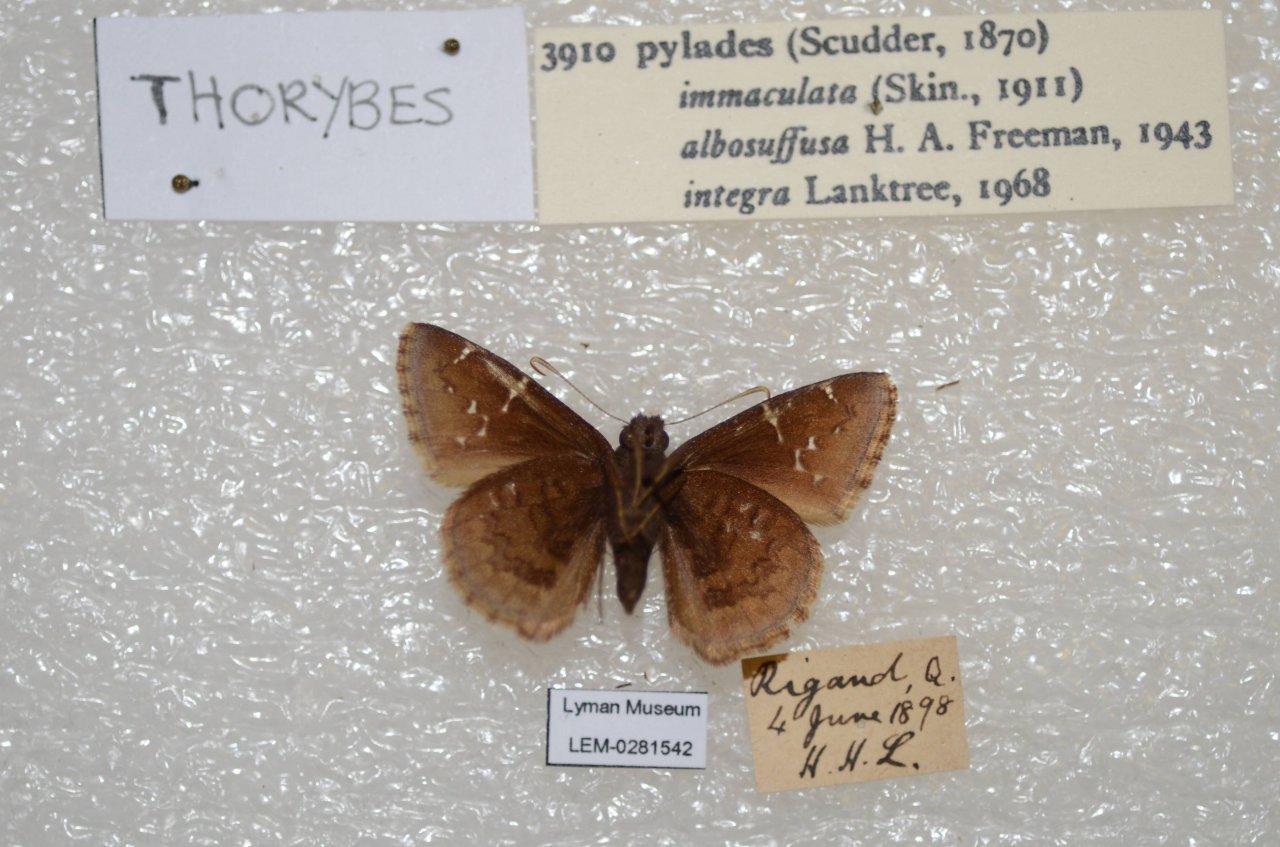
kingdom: Animalia
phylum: Arthropoda
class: Insecta
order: Lepidoptera
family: Hesperiidae
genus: Autochton
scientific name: Autochton
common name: Northern Cloudywing
